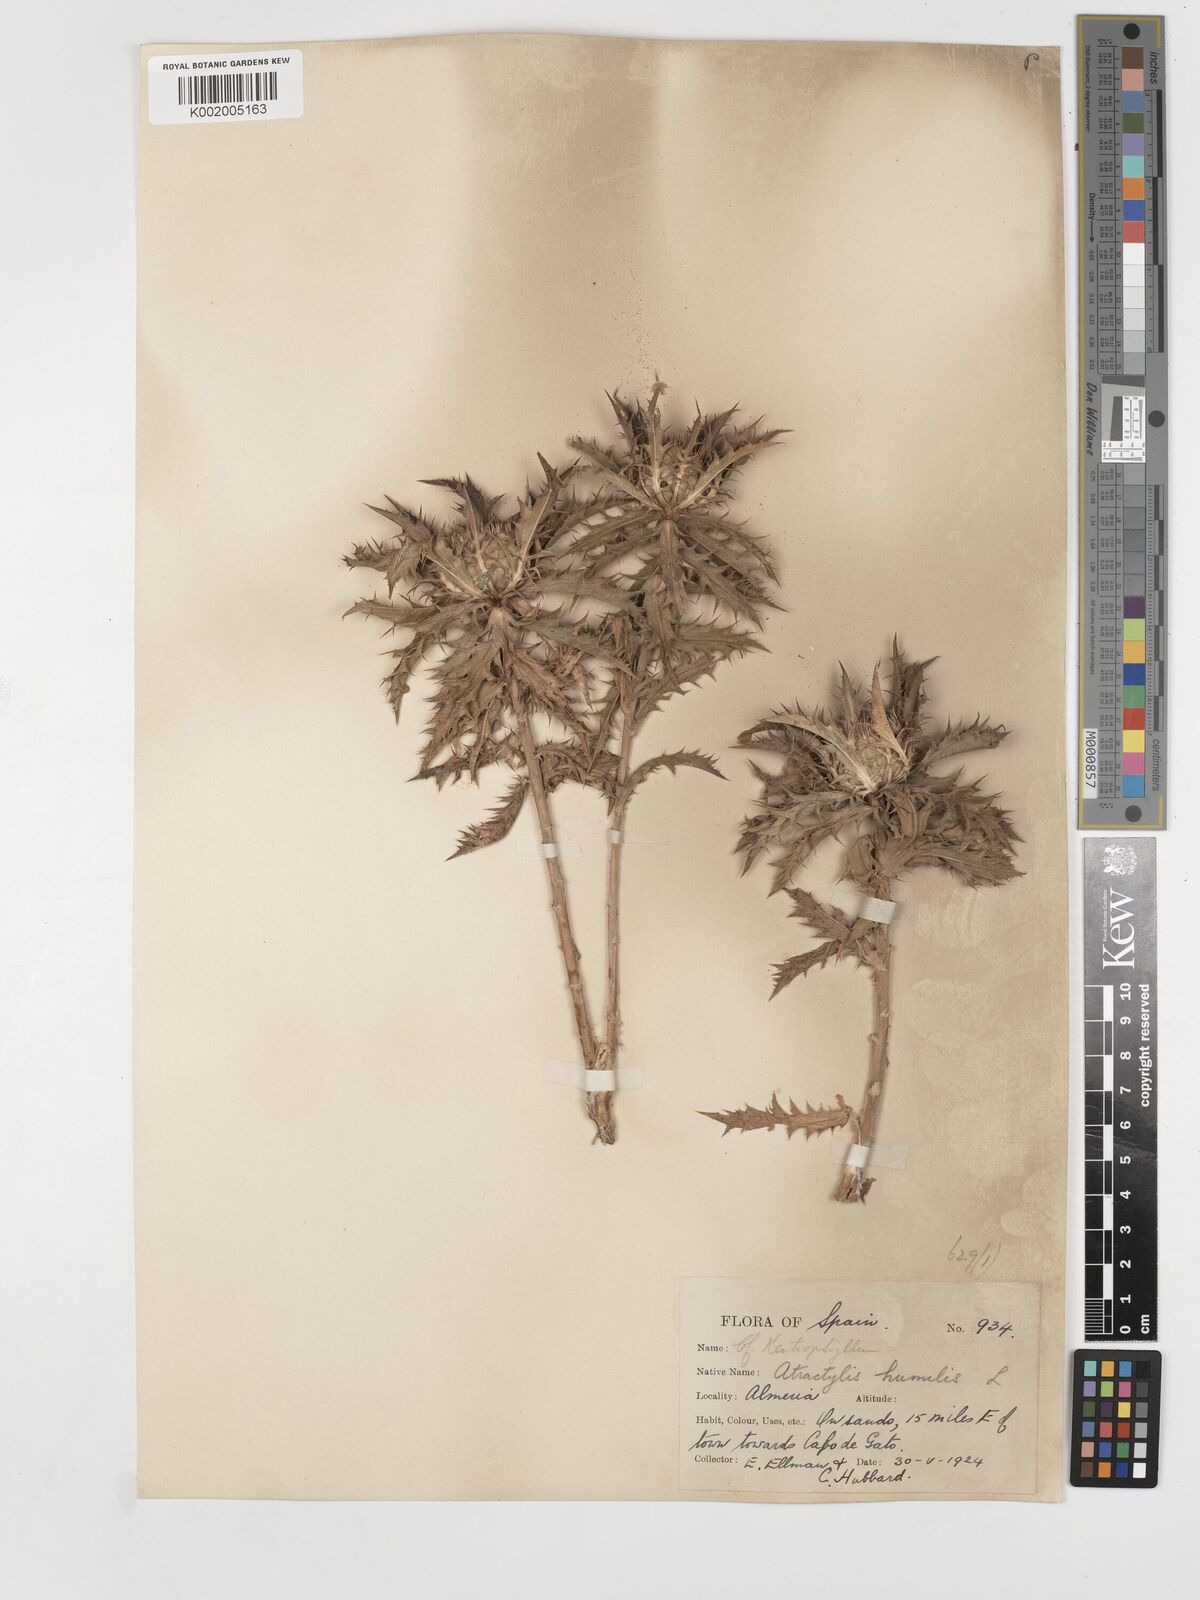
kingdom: Plantae
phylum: Tracheophyta
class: Magnoliopsida
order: Asterales
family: Asteraceae
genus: Atractylis
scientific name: Atractylis humilis
